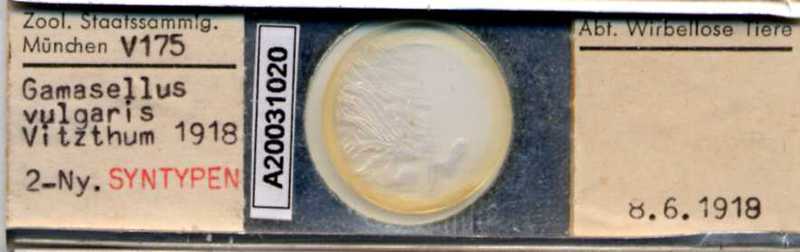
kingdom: Animalia
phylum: Arthropoda
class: Arachnida
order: Mesostigmata
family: Ologamasidae
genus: Gamasellus
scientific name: Gamasellus
